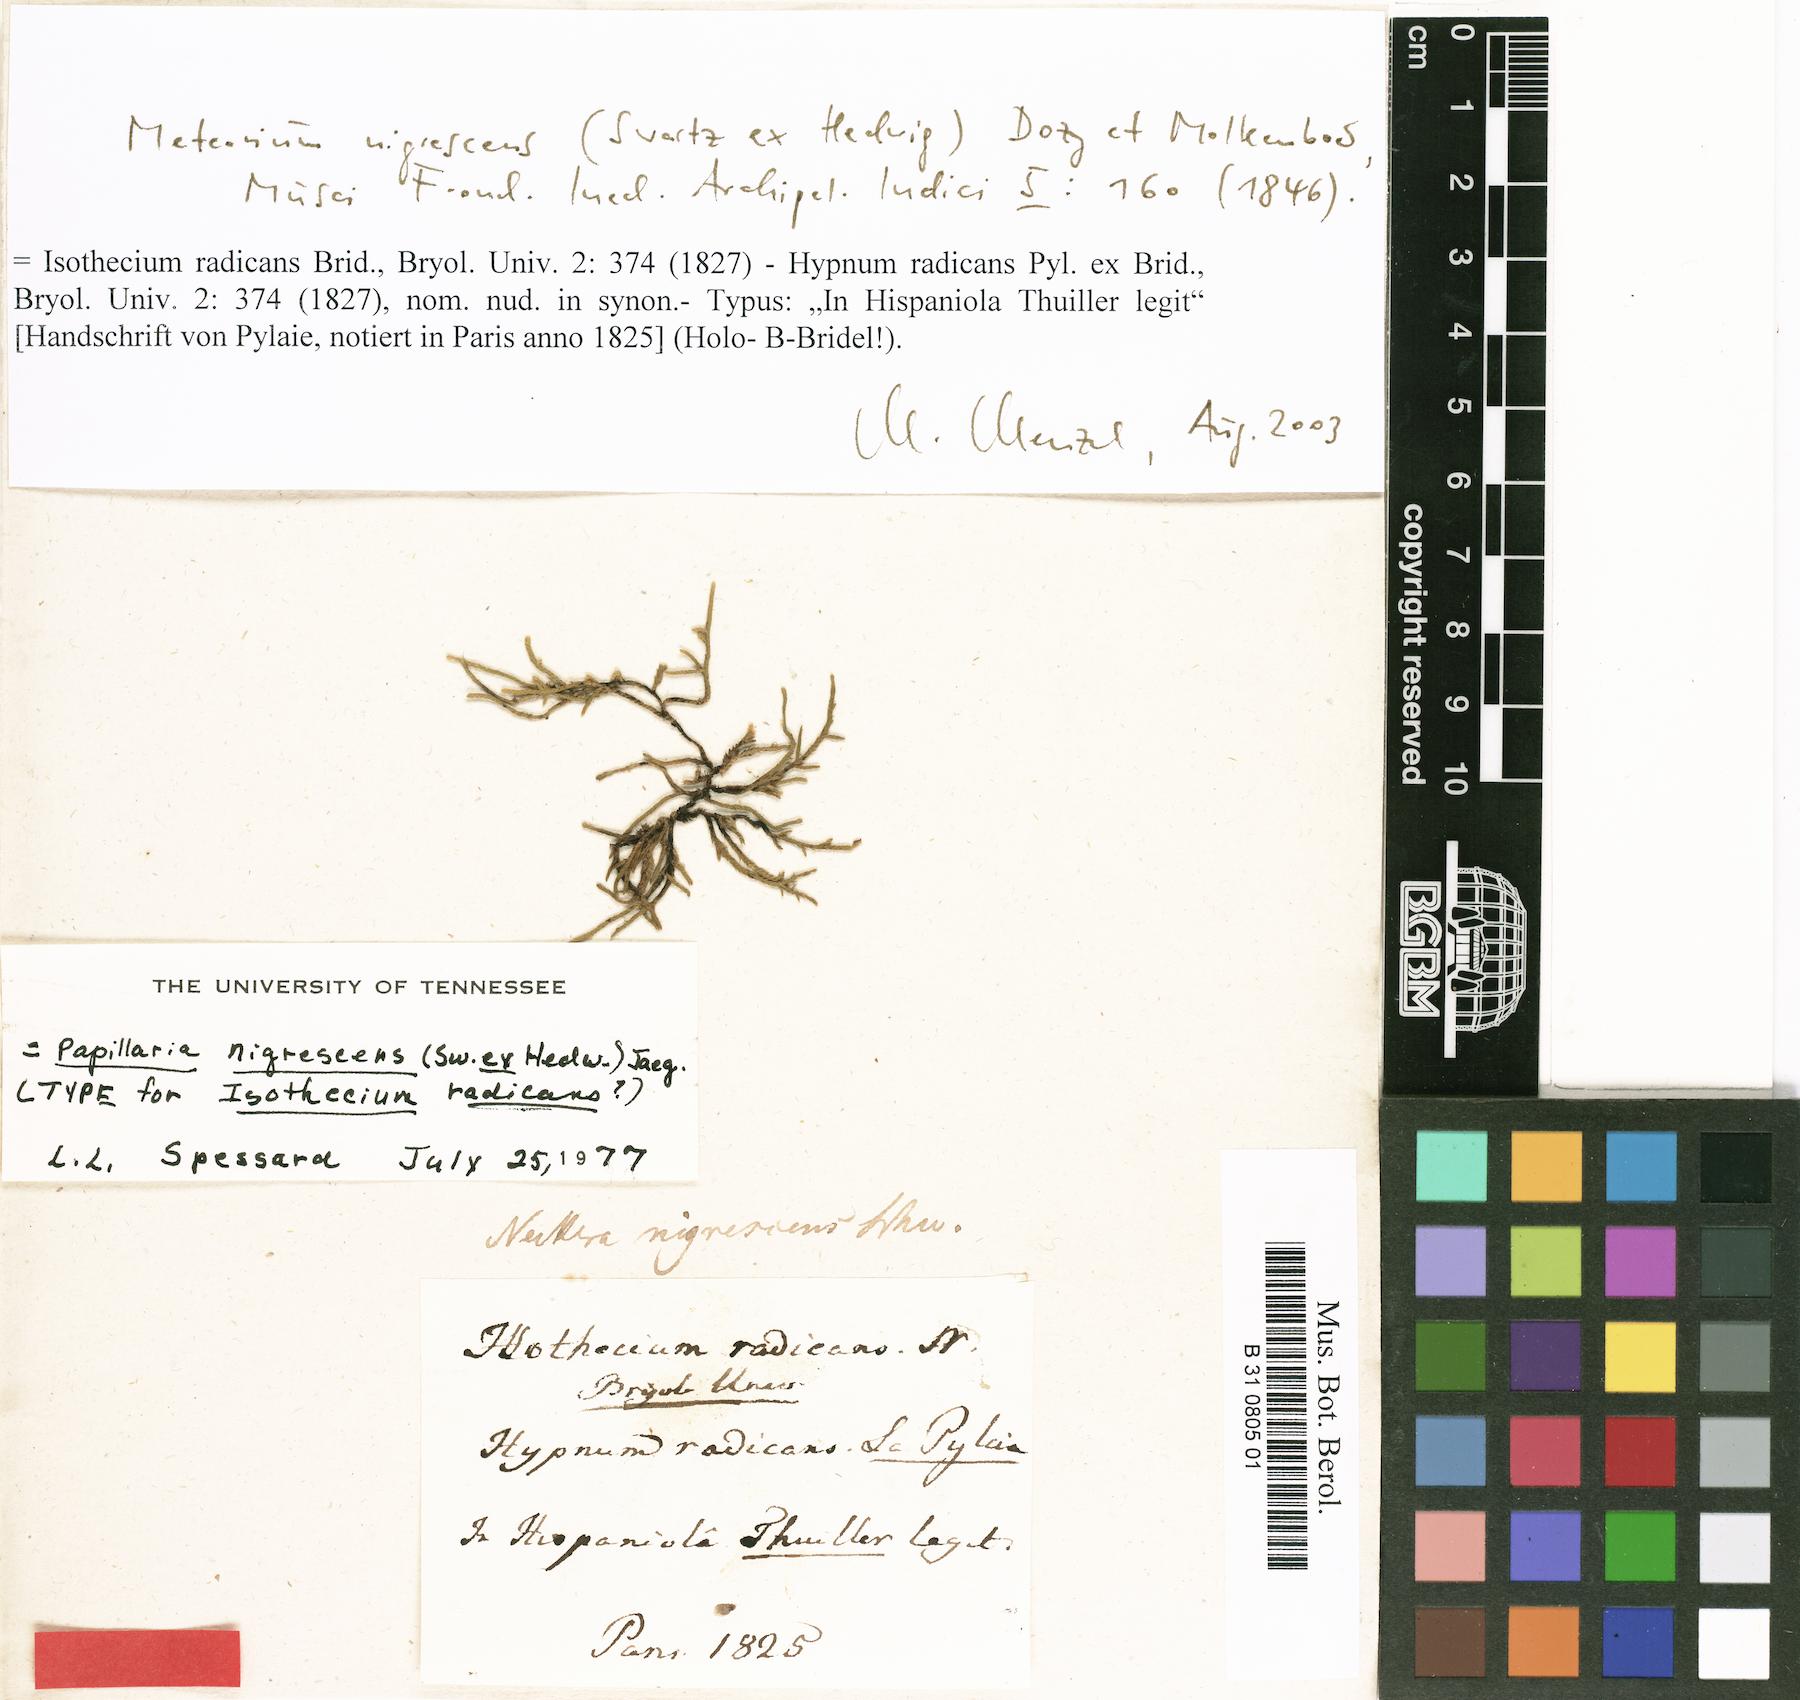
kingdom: Plantae
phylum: Bryophyta
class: Bryopsida
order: Hypnales
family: Meteoriaceae
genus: Meteorium
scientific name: Meteorium nigrescens
